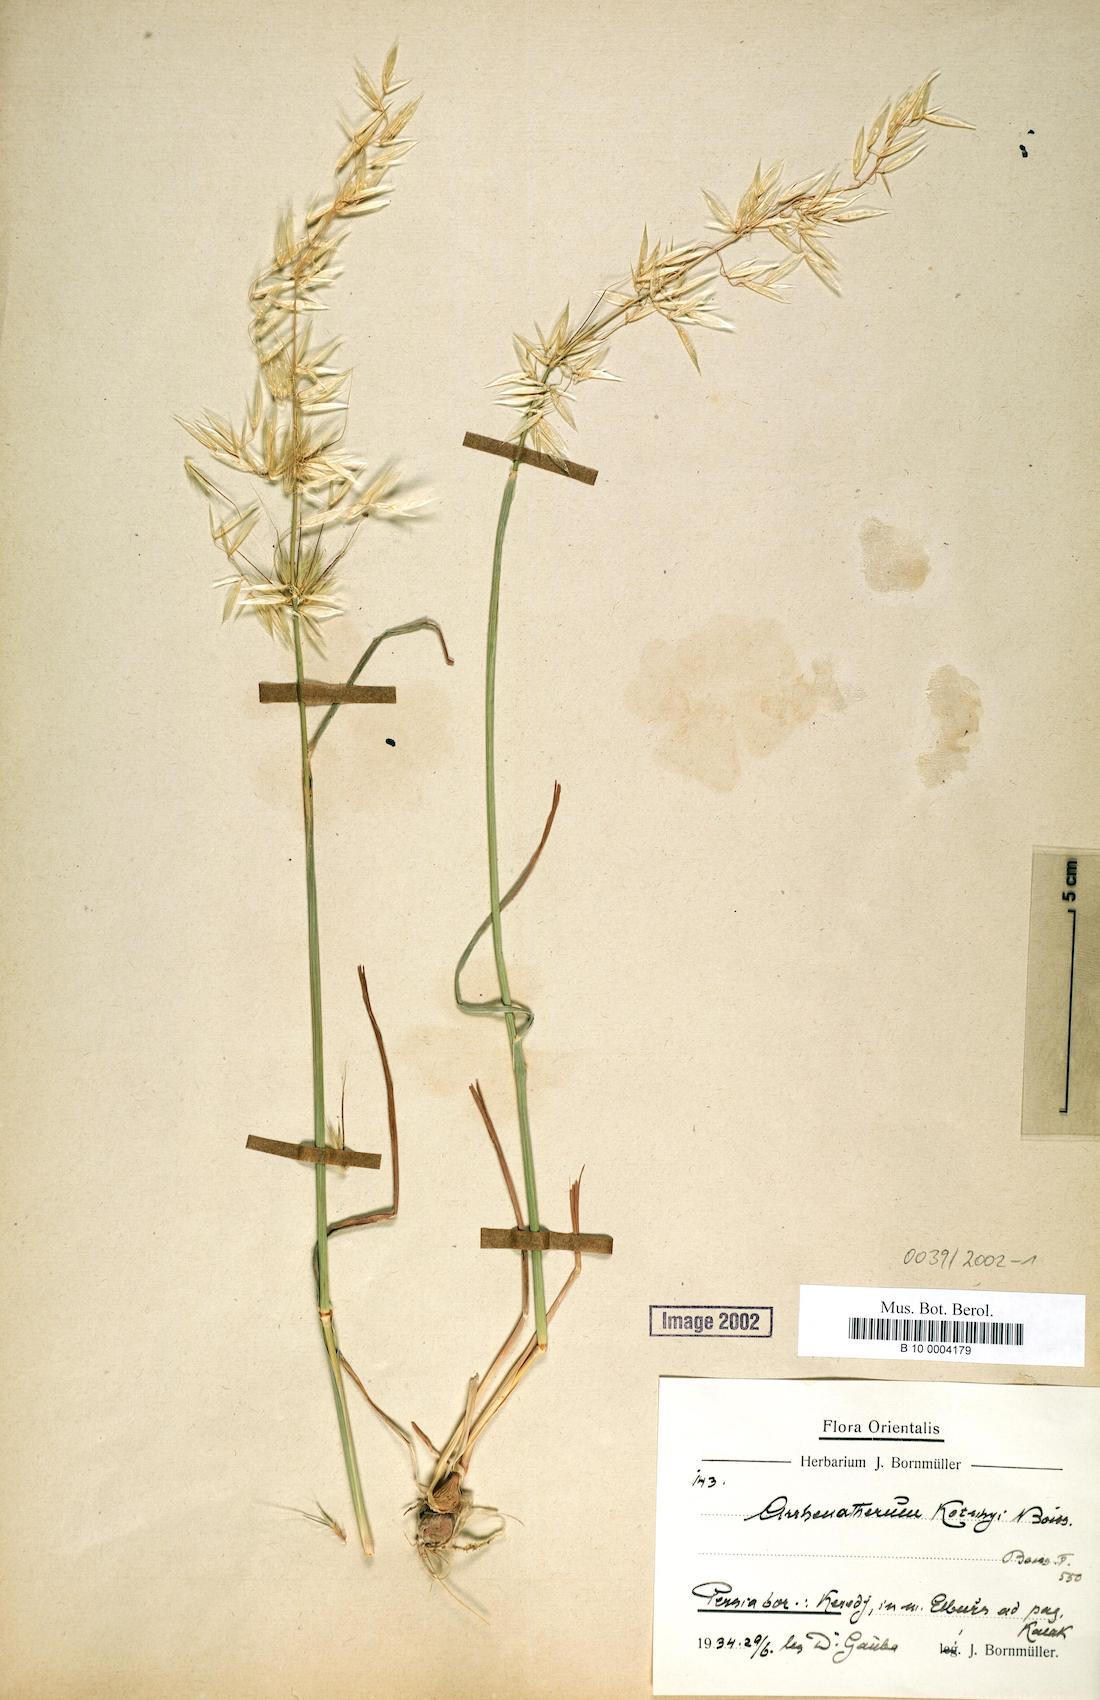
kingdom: Plantae
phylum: Tracheophyta
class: Liliopsida
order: Poales
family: Poaceae
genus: Arrhenatherum
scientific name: Arrhenatherum kotschyi
